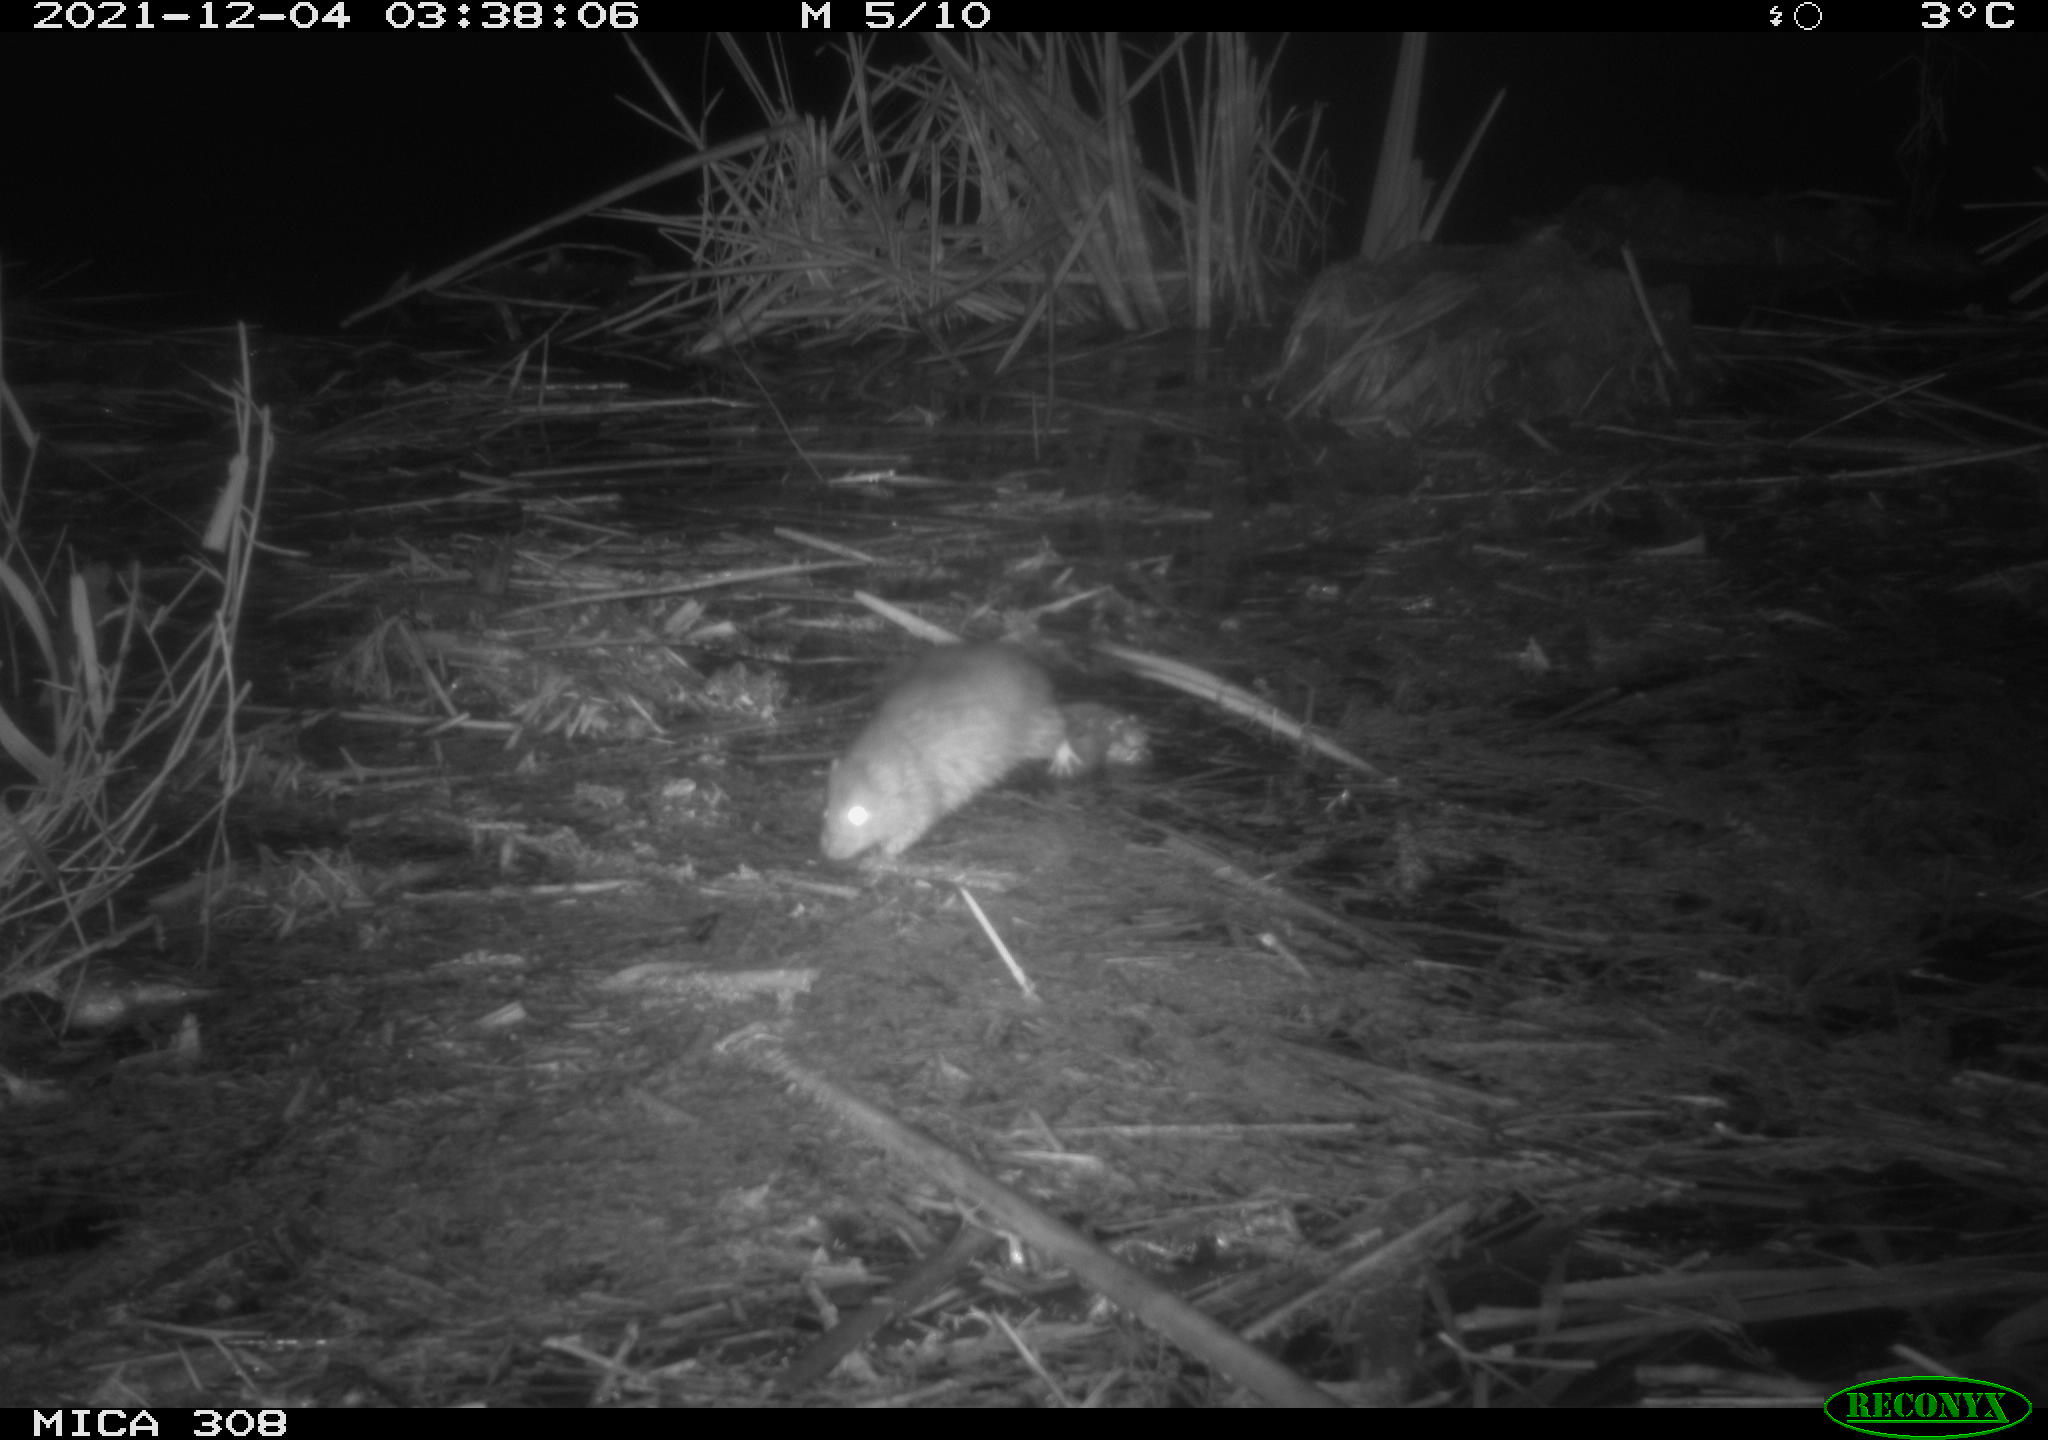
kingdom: Animalia
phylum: Chordata
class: Mammalia
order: Rodentia
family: Muridae
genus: Rattus
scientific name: Rattus norvegicus
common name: Brown rat
